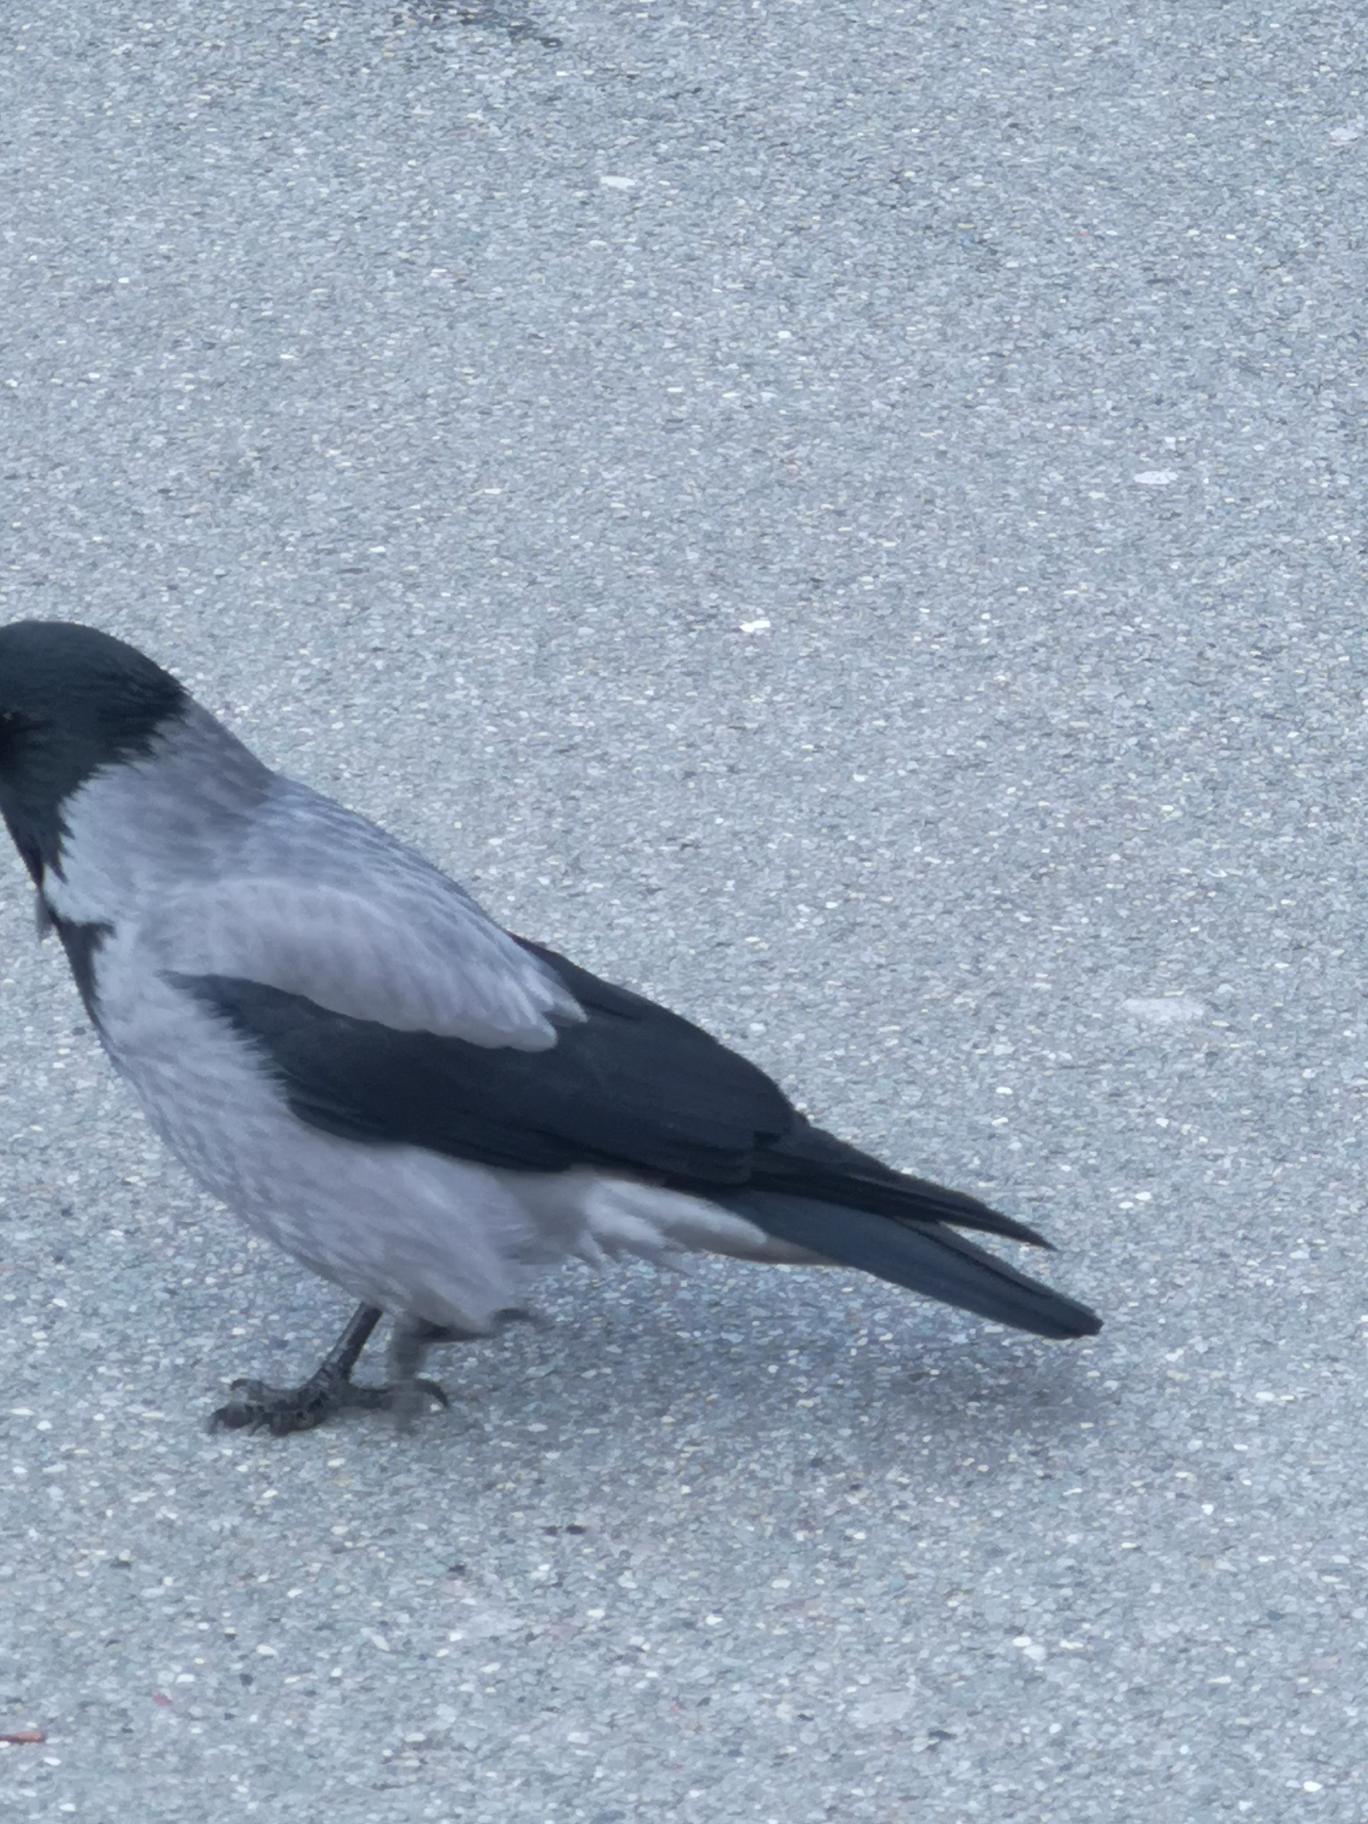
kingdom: Animalia
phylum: Chordata
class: Aves
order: Passeriformes
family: Corvidae
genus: Corvus
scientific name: Corvus cornix
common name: Gråkrage
